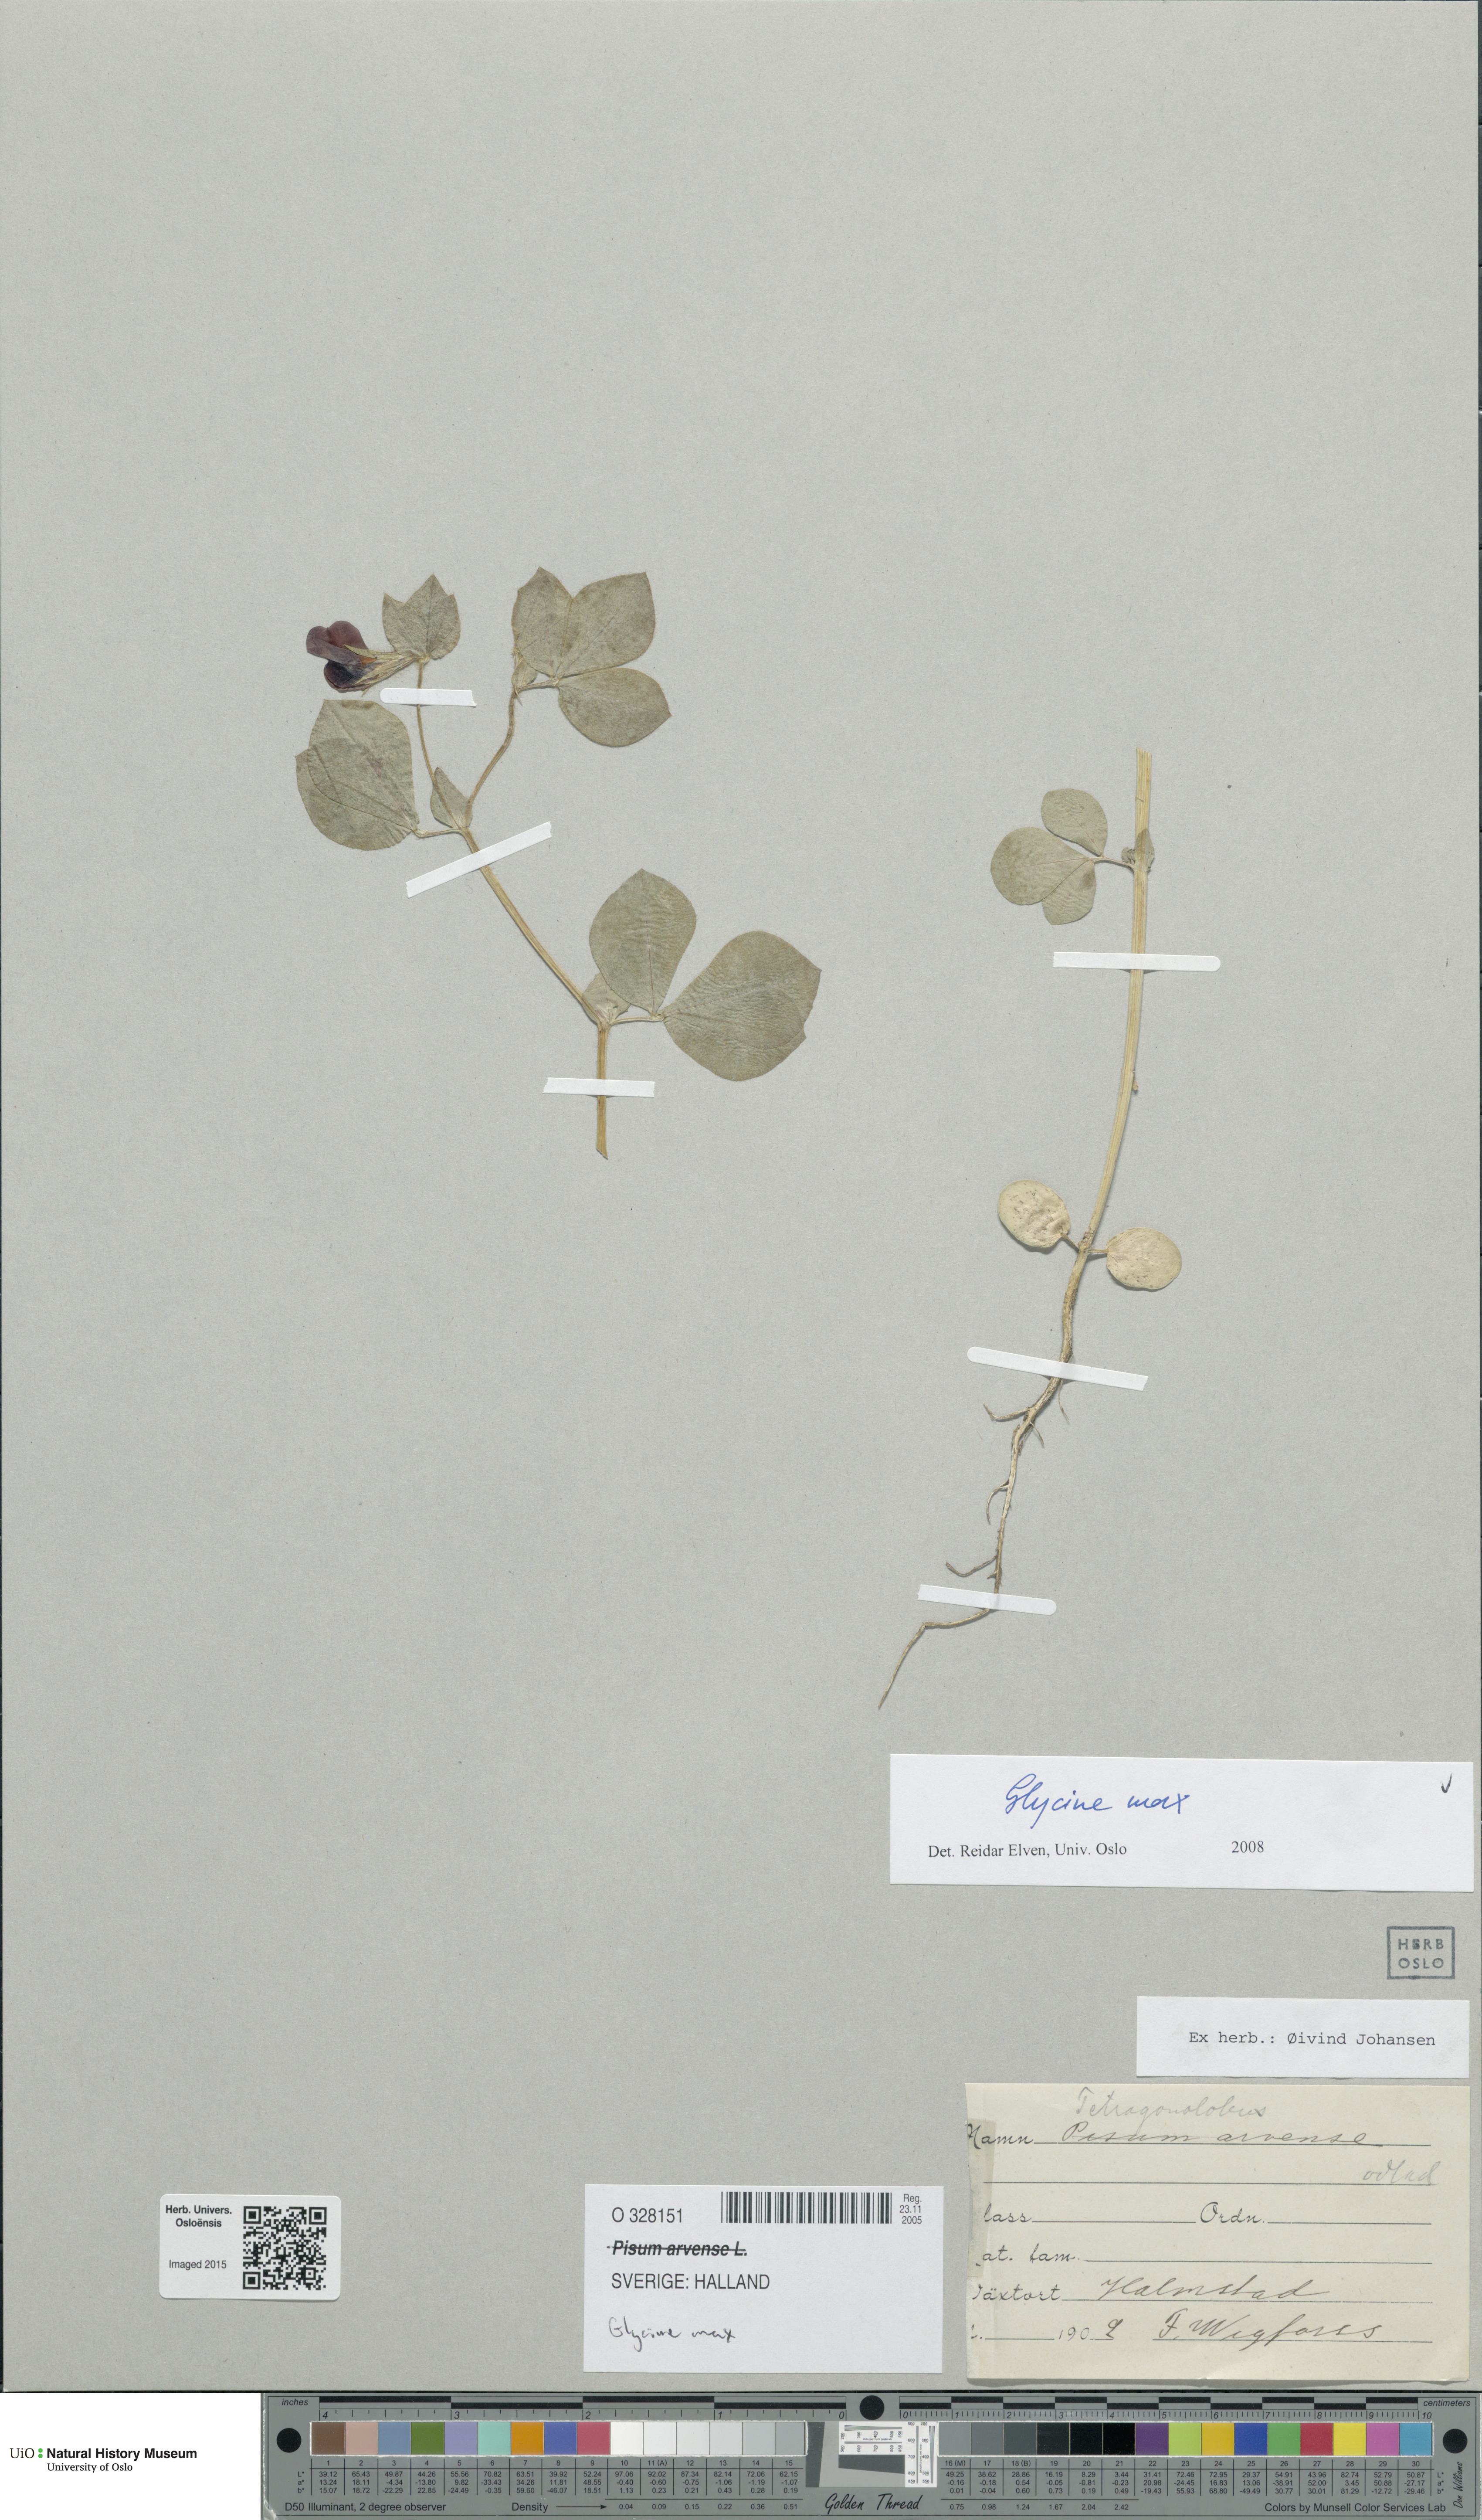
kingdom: Plantae
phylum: Tracheophyta
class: Magnoliopsida
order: Fabales
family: Fabaceae
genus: Glycine
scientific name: Glycine max
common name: Soya-bean
